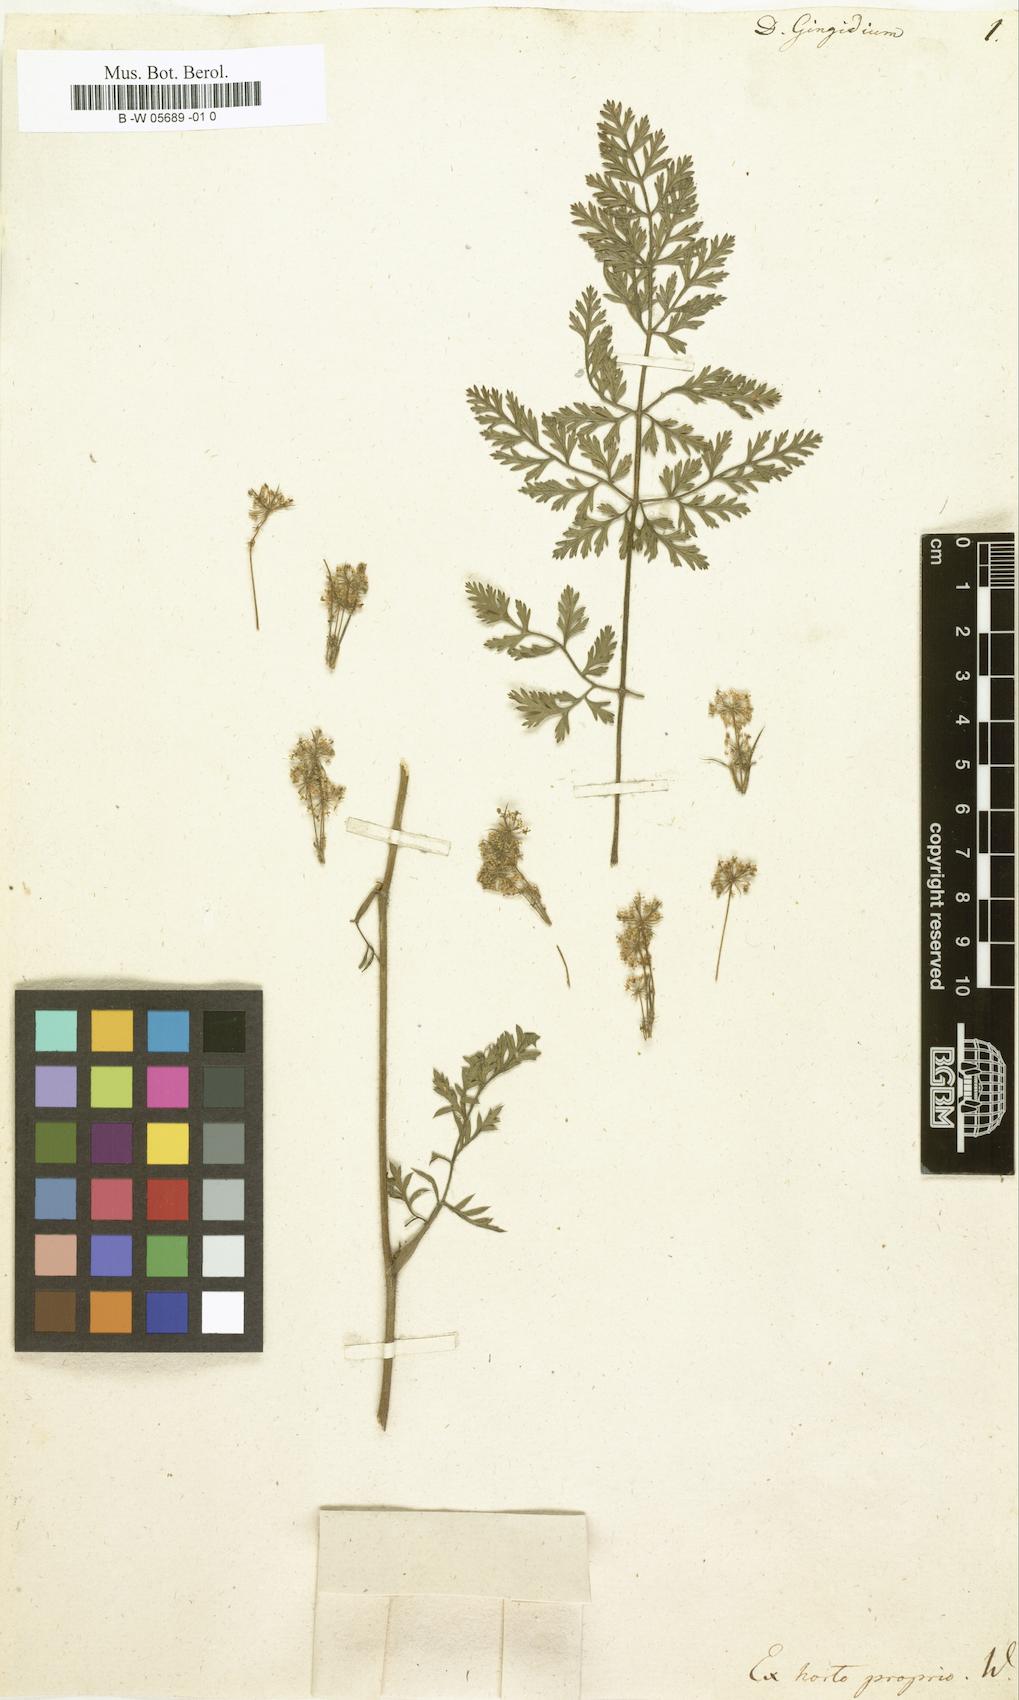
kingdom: Plantae
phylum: Tracheophyta
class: Magnoliopsida
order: Apiales
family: Apiaceae
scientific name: Apiaceae
